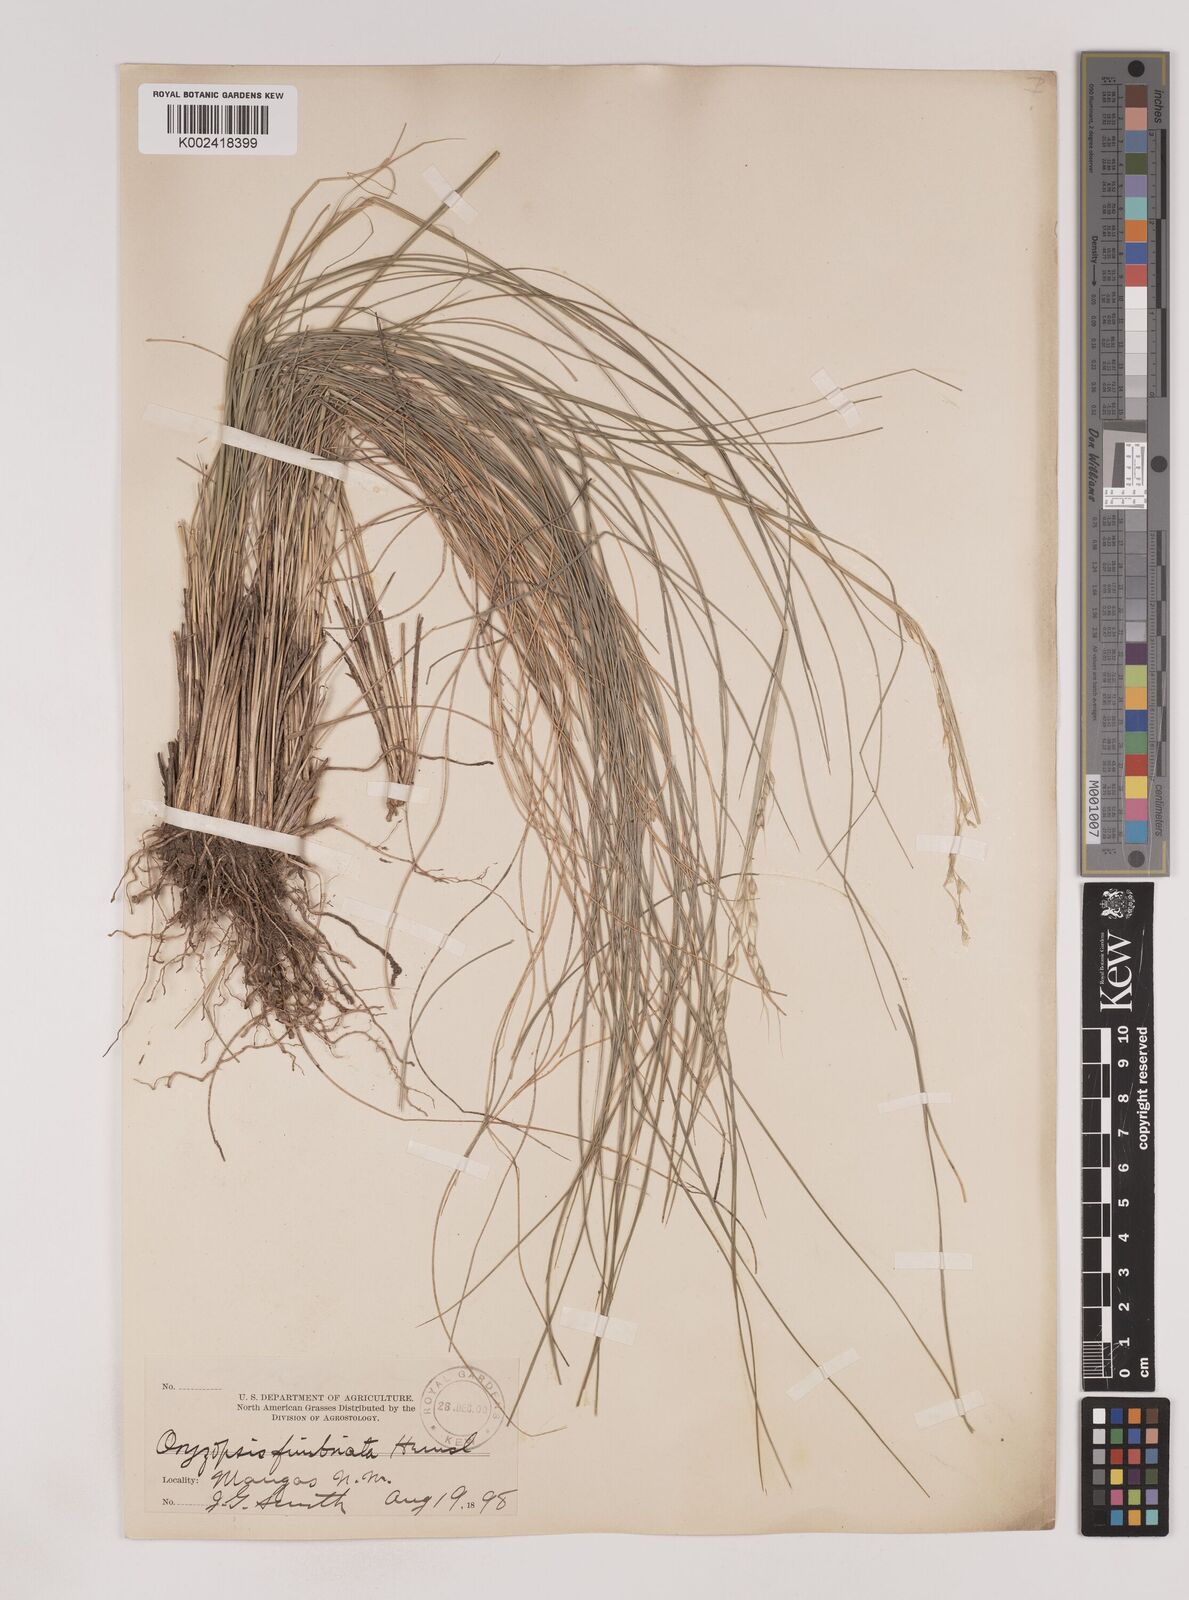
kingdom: Plantae
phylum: Tracheophyta
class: Liliopsida
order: Poales
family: Poaceae
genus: Piptochaetium
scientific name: Piptochaetium fimbriatum
